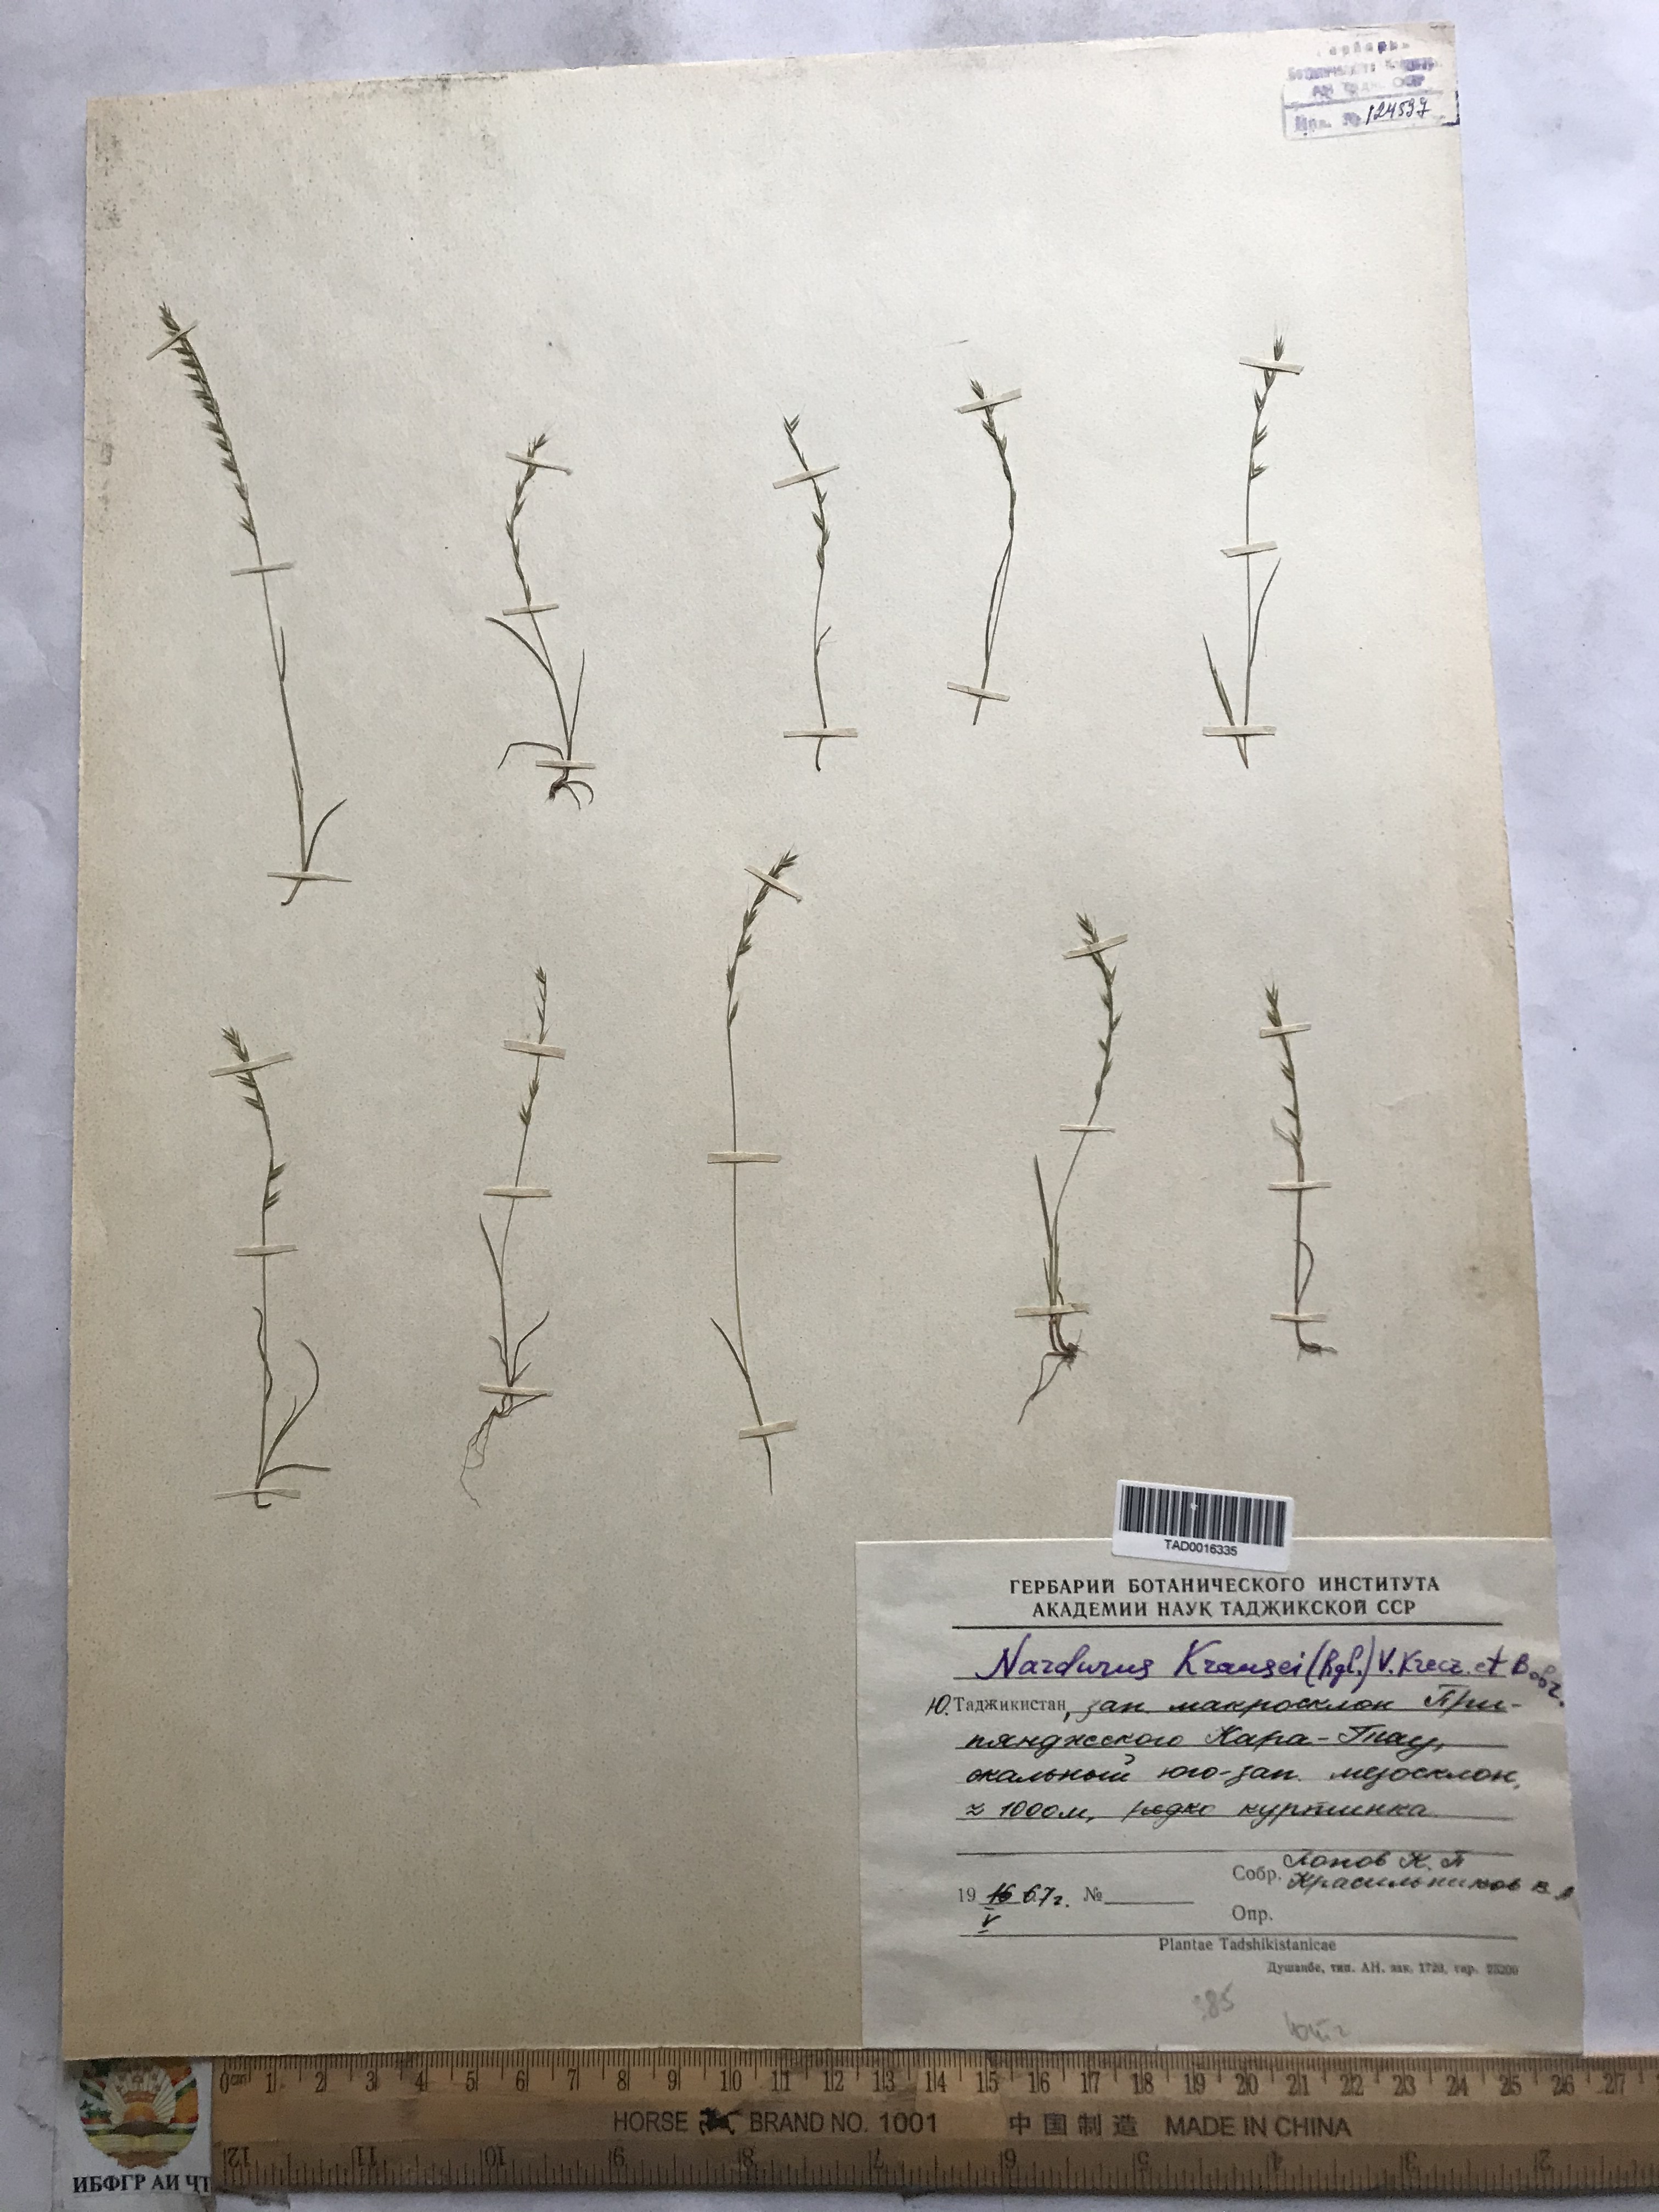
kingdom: Plantae
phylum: Tracheophyta
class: Liliopsida
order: Poales
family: Poaceae
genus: Festuca
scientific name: Festuca maritima
